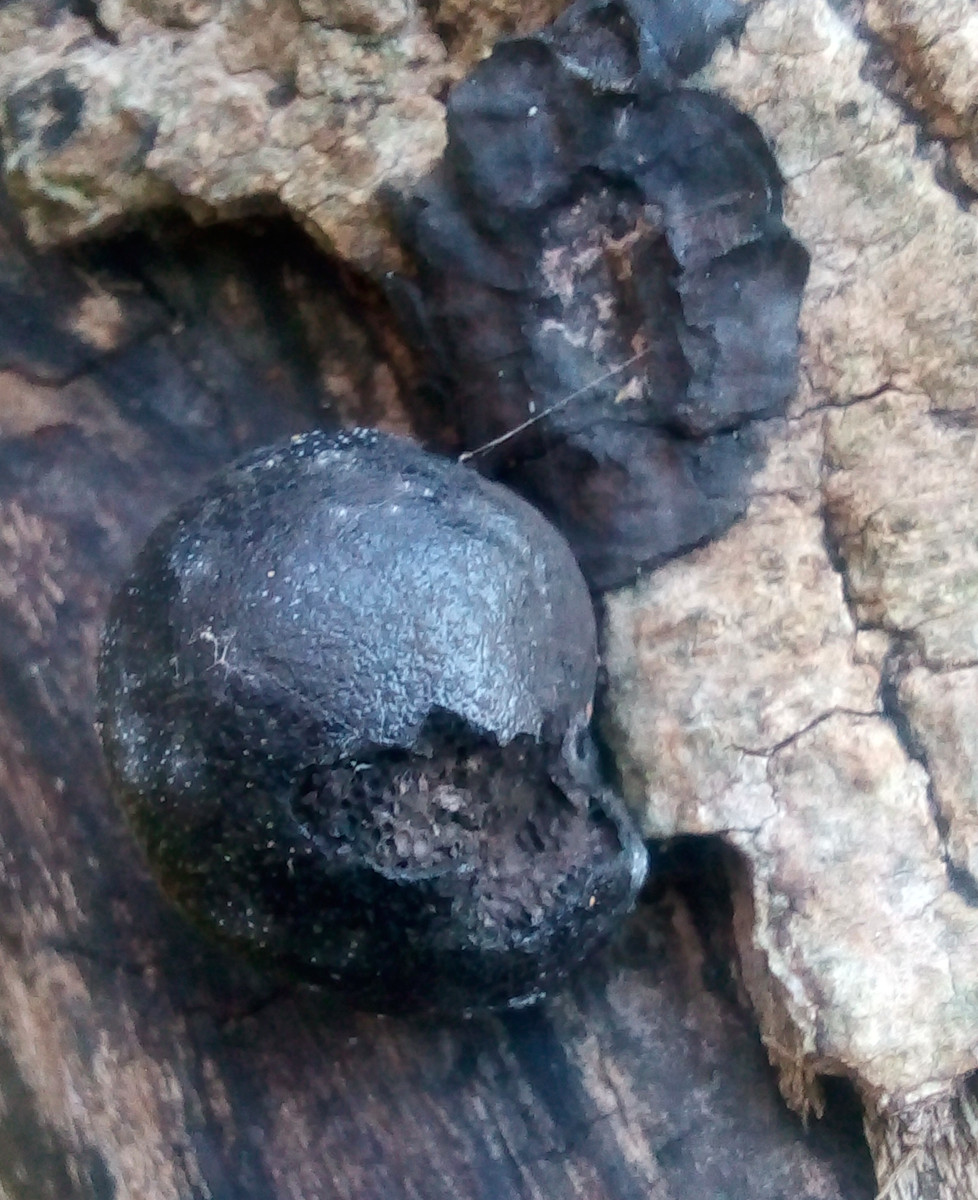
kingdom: Fungi
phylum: Ascomycota
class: Sordariomycetes
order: Xylariales
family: Hypoxylaceae
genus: Daldinia
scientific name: Daldinia concentrica
